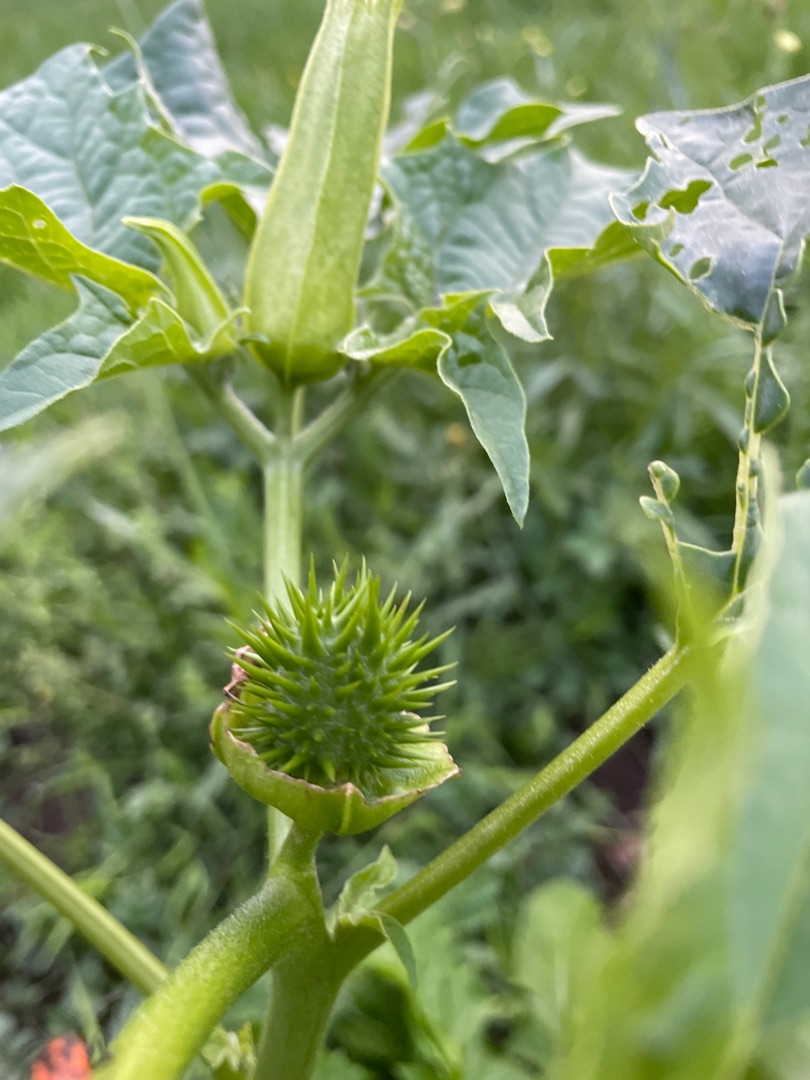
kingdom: Plantae
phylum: Tracheophyta
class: Magnoliopsida
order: Solanales
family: Solanaceae
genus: Datura
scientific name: Datura stramonium
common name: Pigæble
